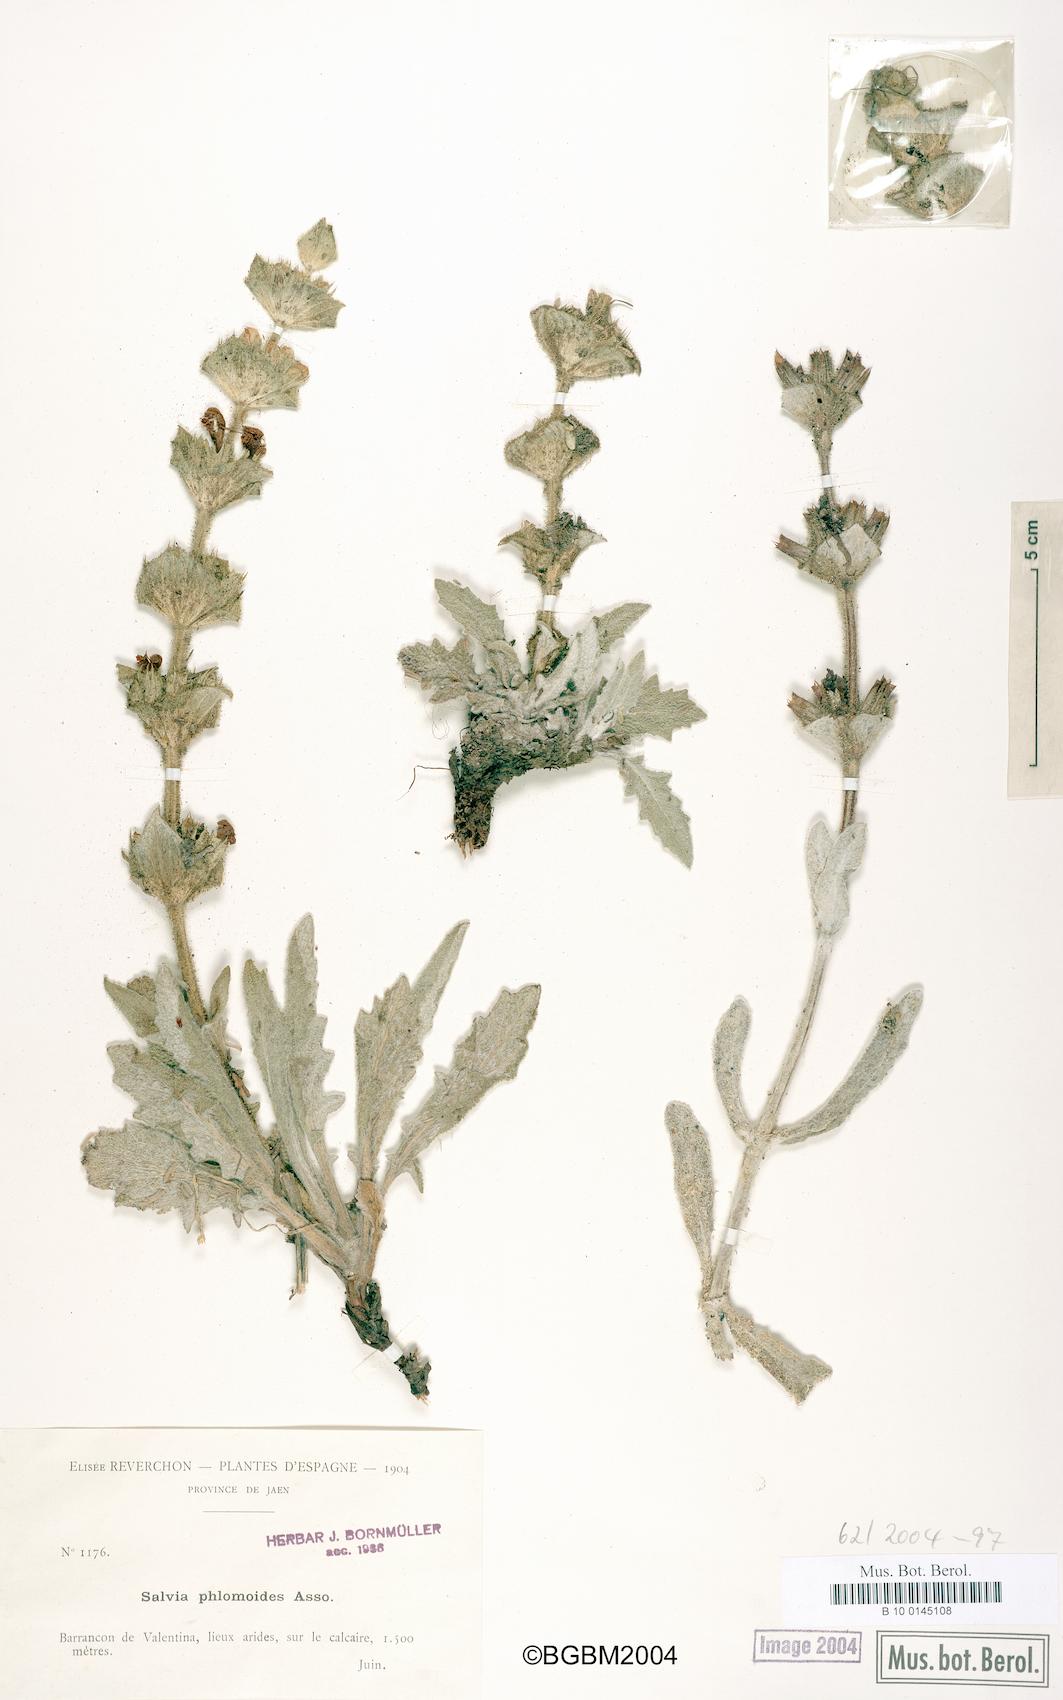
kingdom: Plantae
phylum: Tracheophyta
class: Magnoliopsida
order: Lamiales
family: Lamiaceae
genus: Salvia
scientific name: Salvia phlomoides
